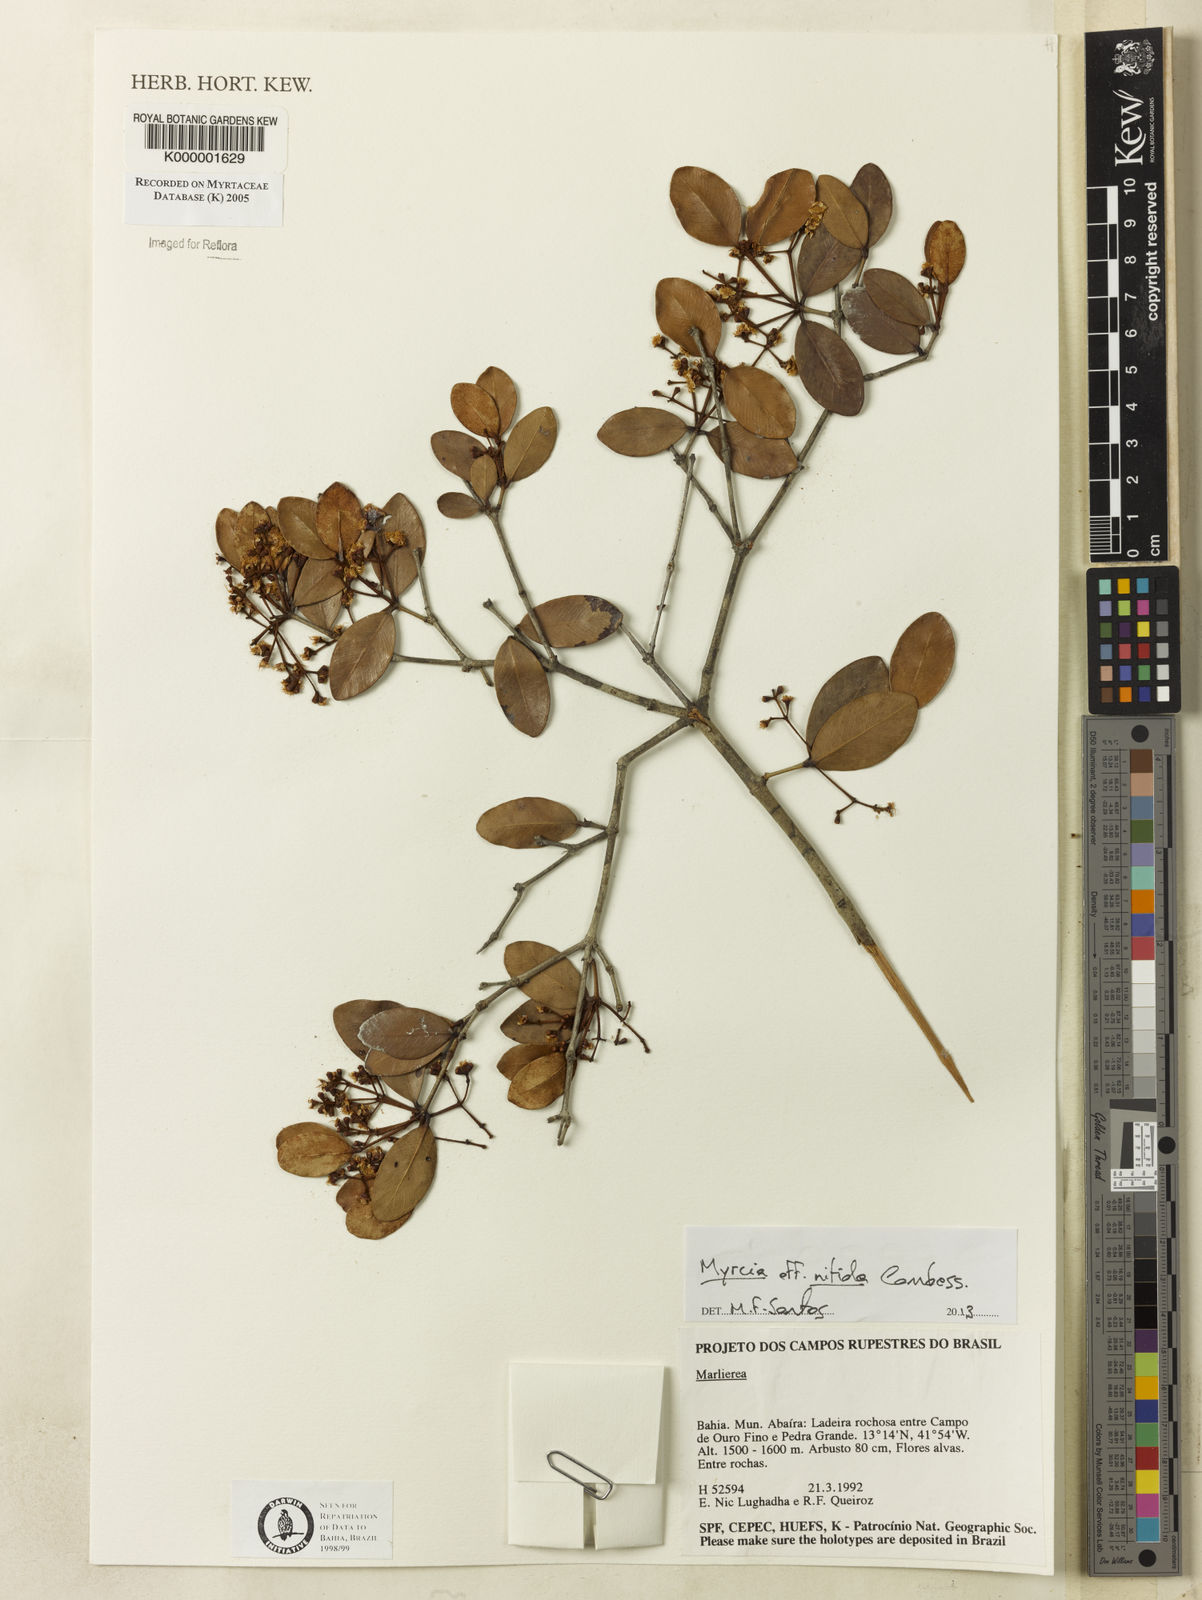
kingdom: Plantae
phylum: Tracheophyta
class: Magnoliopsida
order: Myrtales
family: Myrtaceae
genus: Myrcia
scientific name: Myrcia lituatinervia
